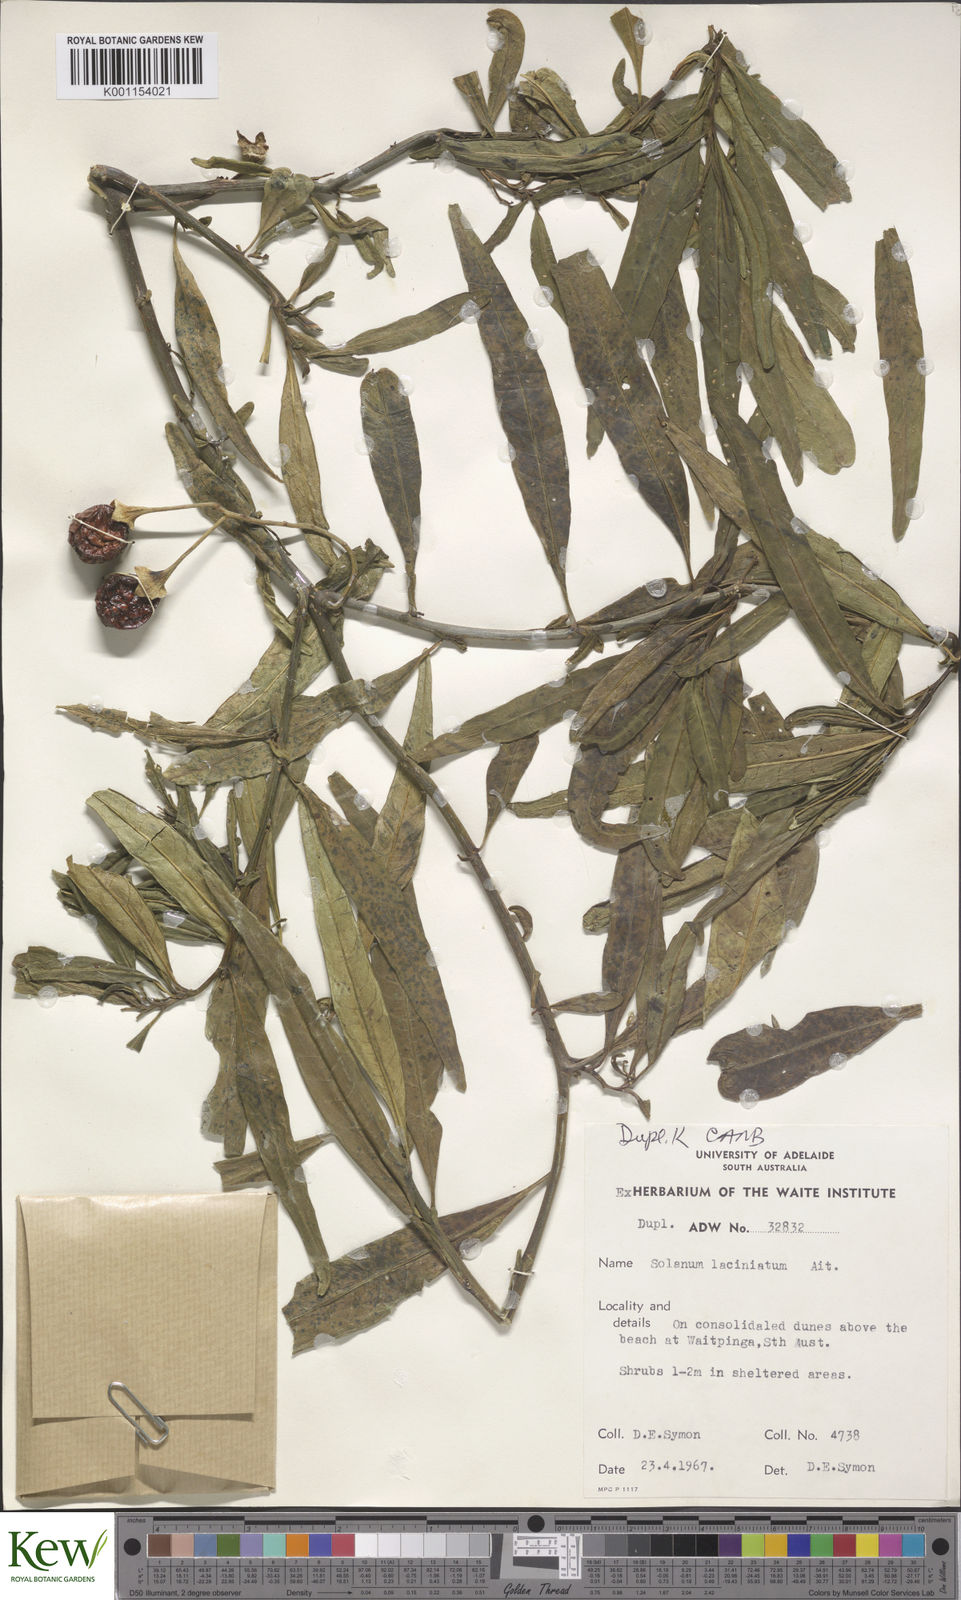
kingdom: Plantae
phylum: Tracheophyta
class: Magnoliopsida
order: Solanales
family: Solanaceae
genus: Solanum
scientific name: Solanum laciniatum
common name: Kangaroo-apple
